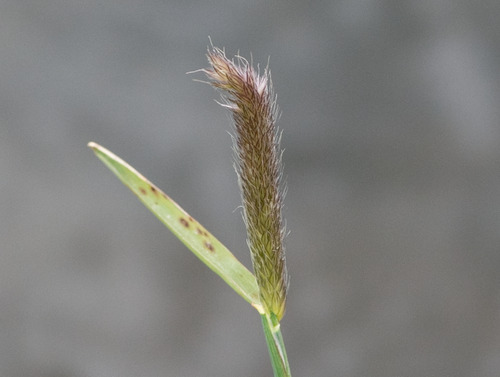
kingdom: Plantae
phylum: Tracheophyta
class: Liliopsida
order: Poales
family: Poaceae
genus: Alopecurus
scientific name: Alopecurus pratensis
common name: Eng-rævehale
